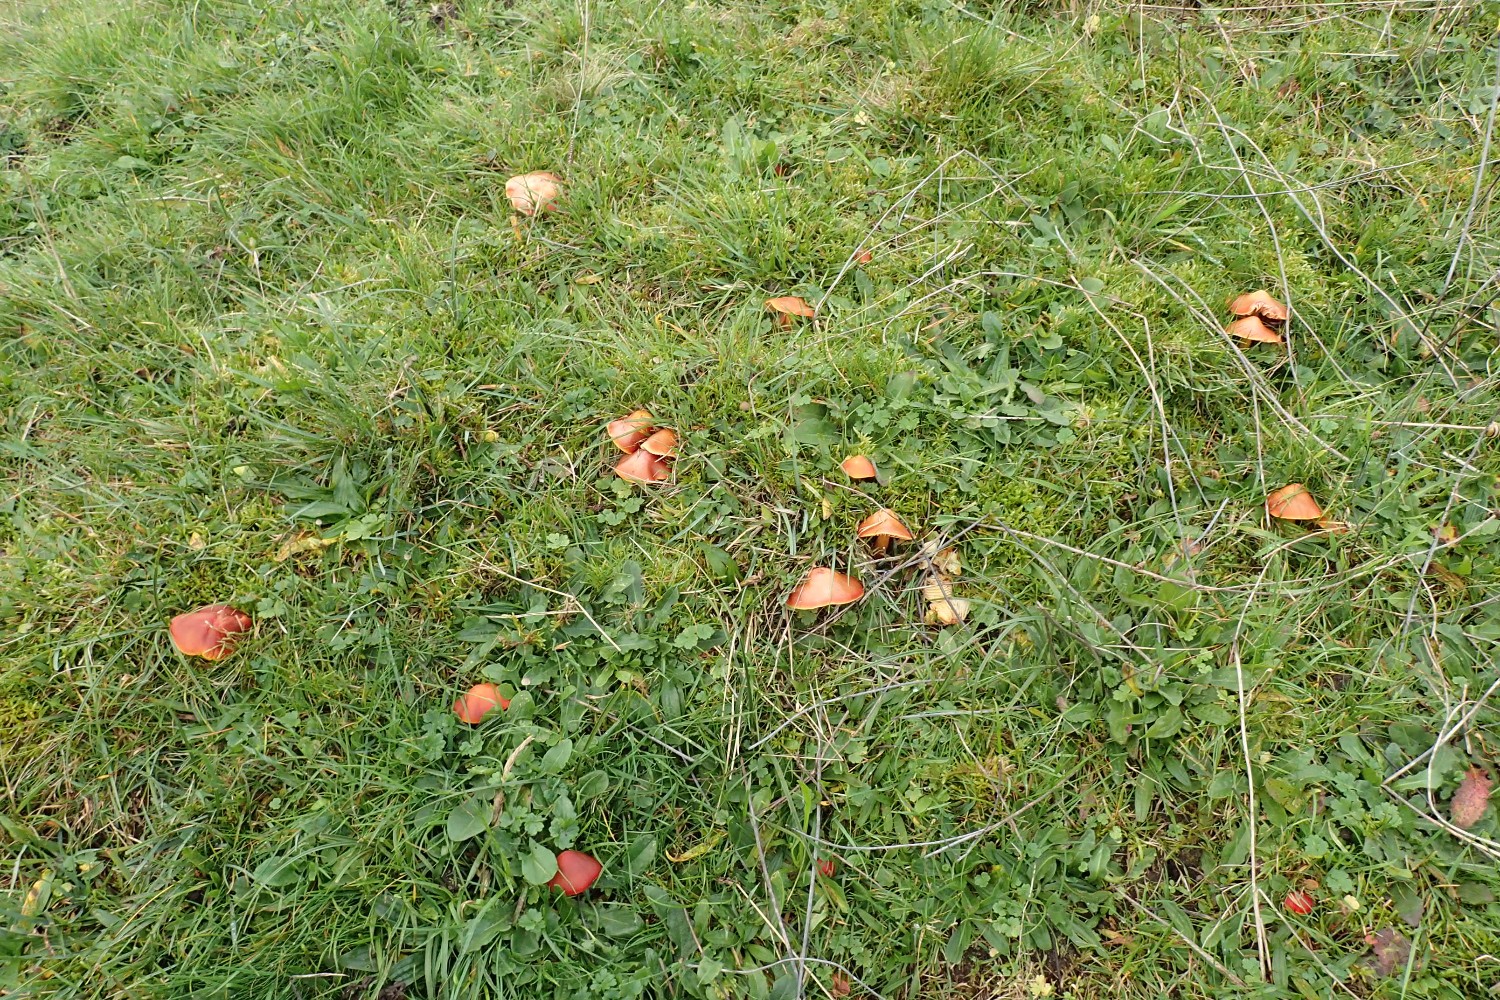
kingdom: Fungi
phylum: Basidiomycota
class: Agaricomycetes
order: Agaricales
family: Hygrophoraceae
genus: Hygrocybe
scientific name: Hygrocybe punicea
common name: skarlagen-vokshat
